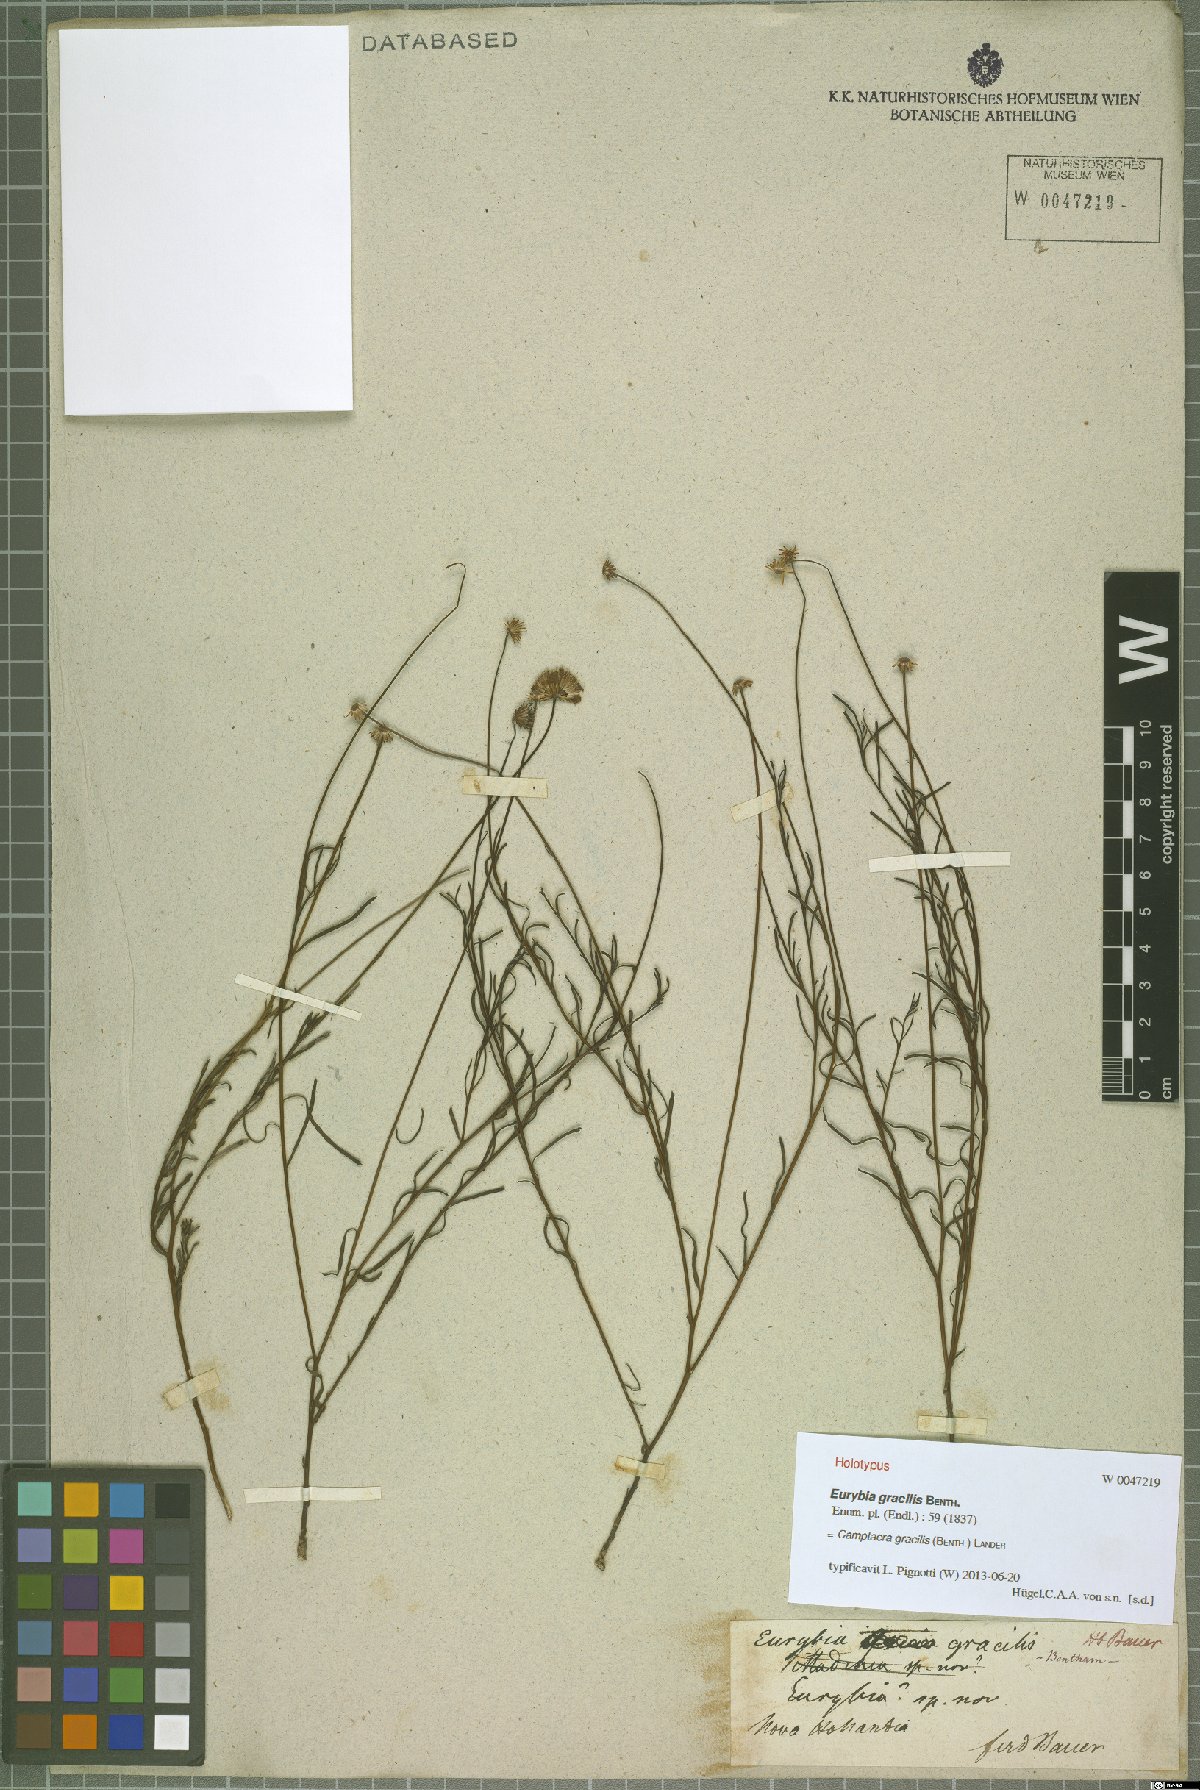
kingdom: Plantae
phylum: Tracheophyta
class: Magnoliopsida
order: Asterales
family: Asteraceae
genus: Camptacra
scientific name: Camptacra gracilis
